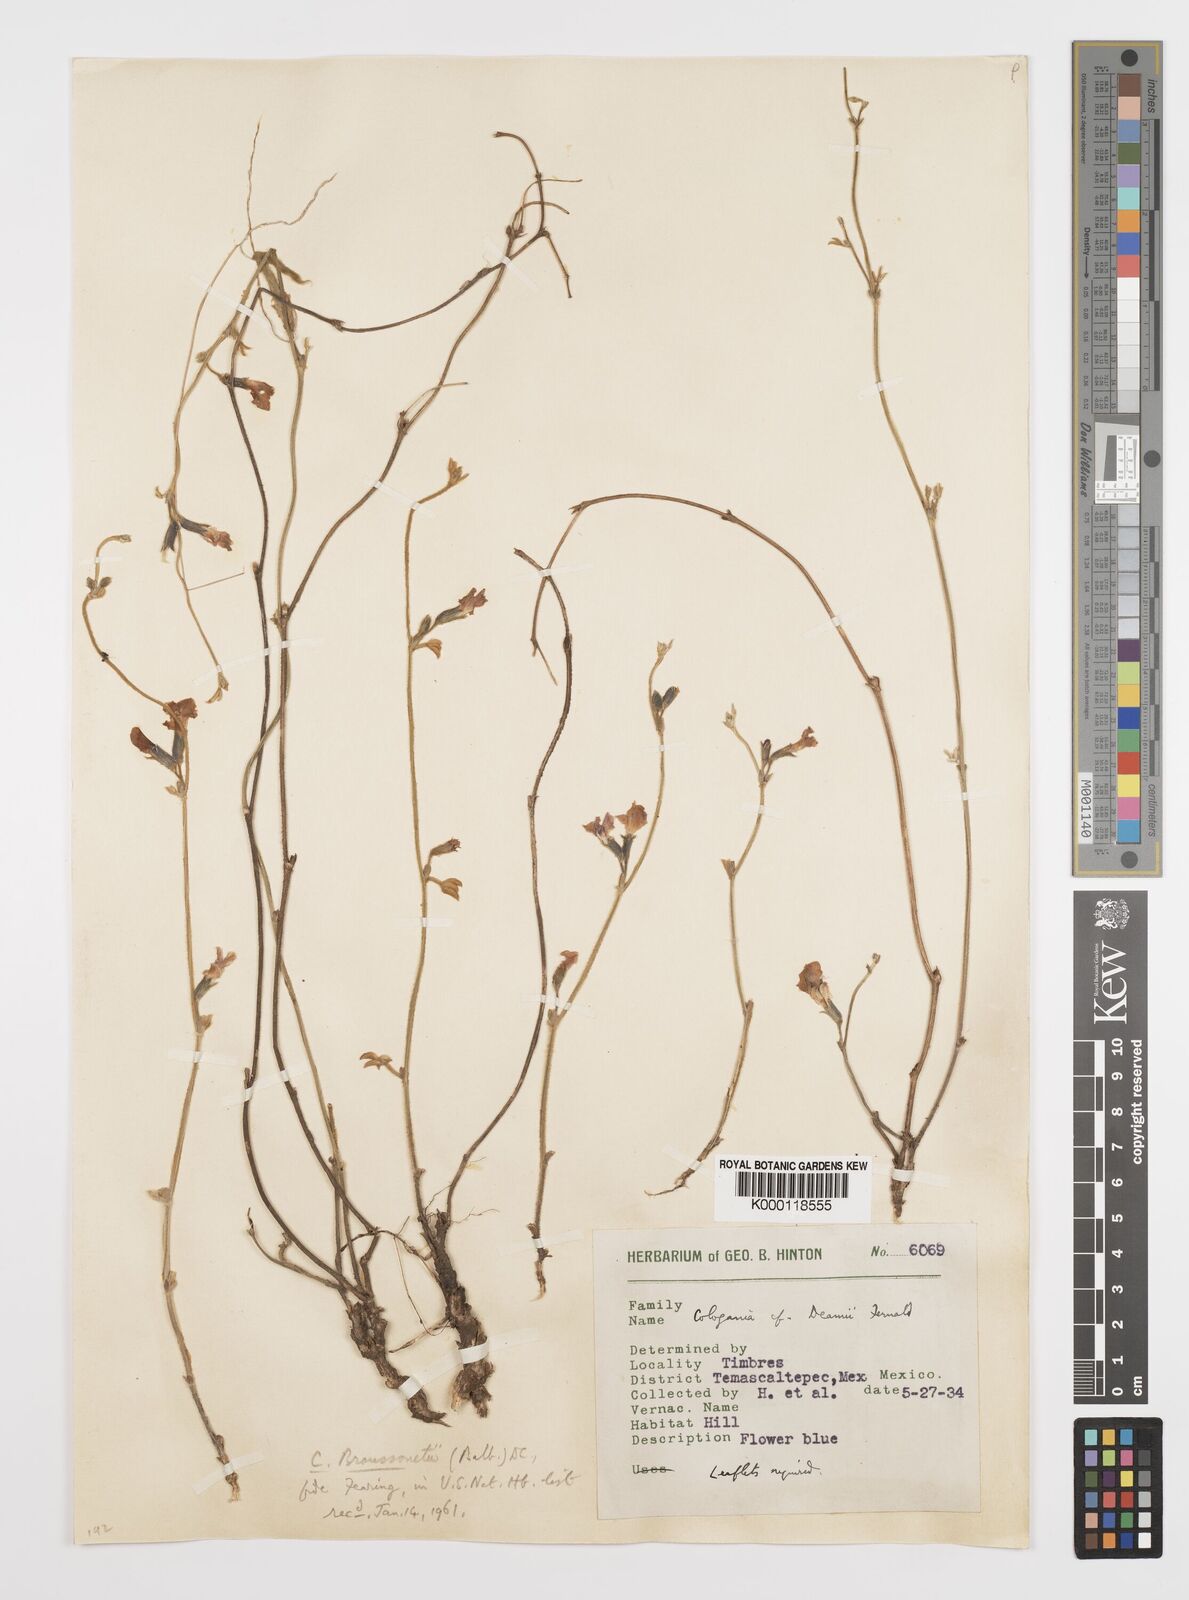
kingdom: Plantae
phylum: Tracheophyta
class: Magnoliopsida
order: Fabales
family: Fabaceae
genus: Cologania
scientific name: Cologania broussonetii
